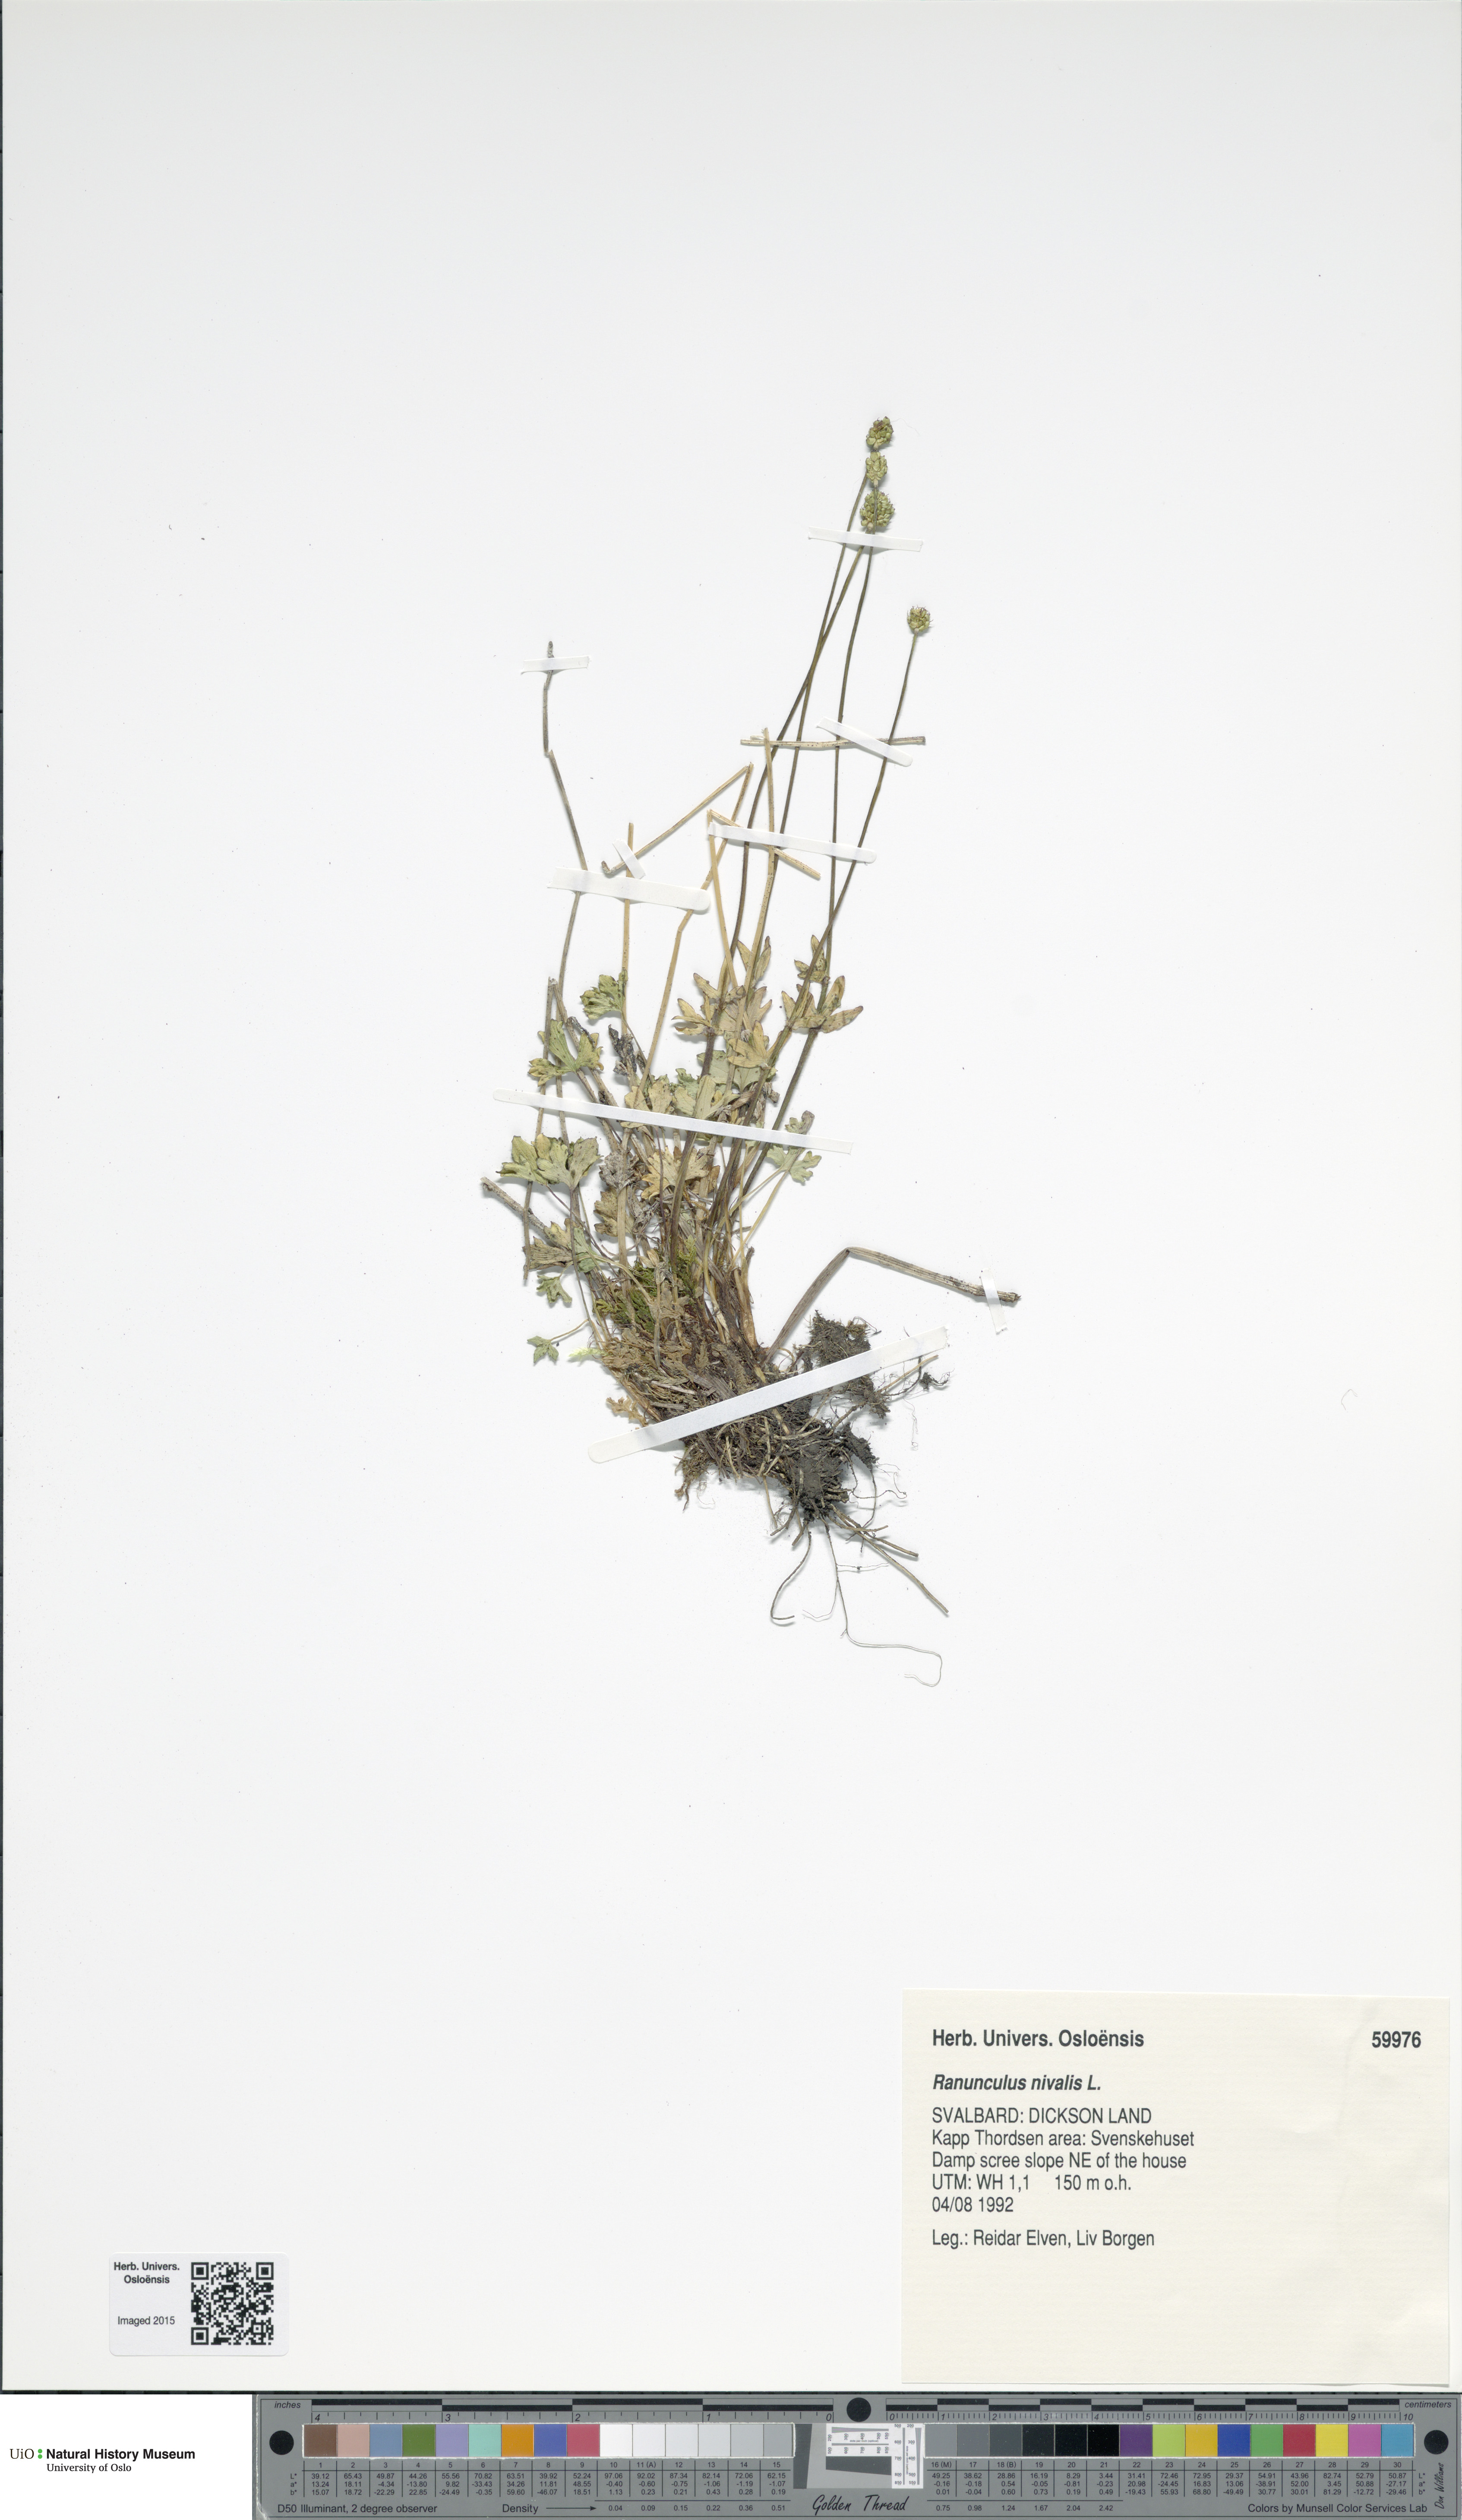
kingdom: Plantae
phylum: Tracheophyta
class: Magnoliopsida
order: Ranunculales
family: Ranunculaceae
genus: Ranunculus
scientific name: Ranunculus nivalis
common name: Snow buttercup
